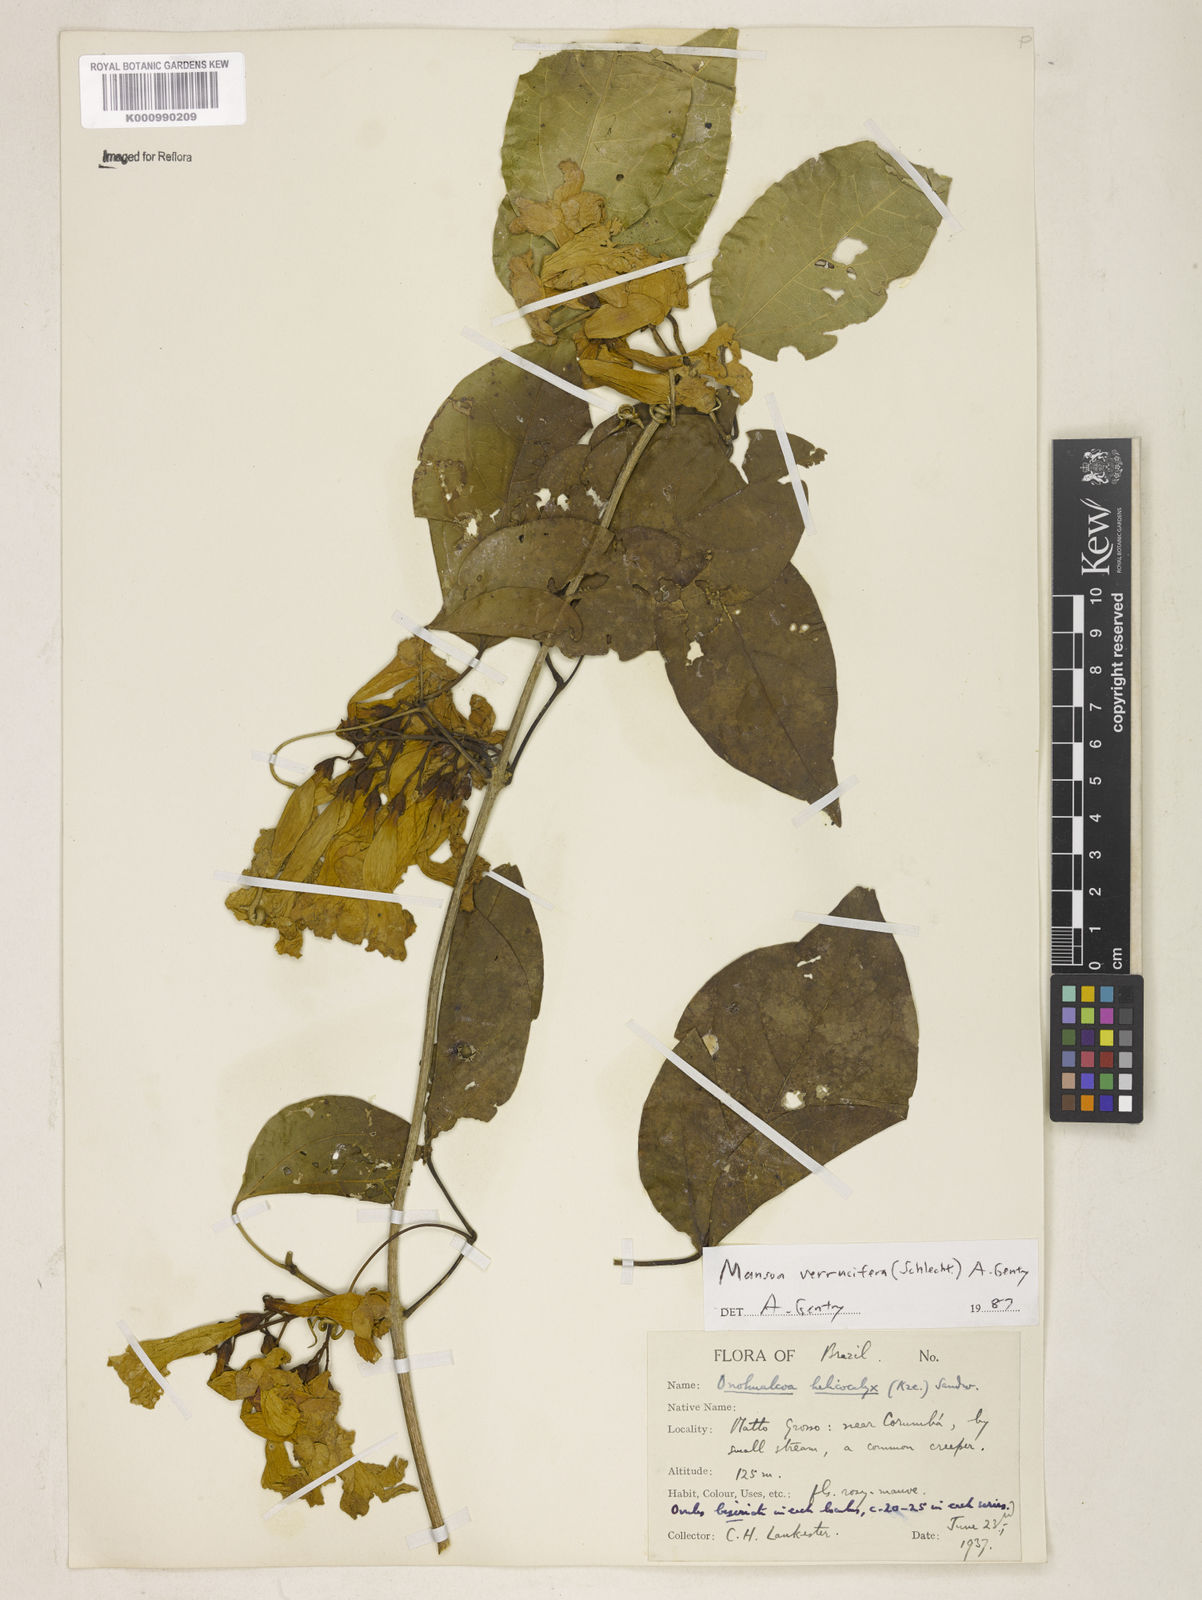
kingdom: Plantae
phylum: Tracheophyta
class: Magnoliopsida
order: Lamiales
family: Bignoniaceae
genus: Mansoa
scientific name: Mansoa verrucifera
